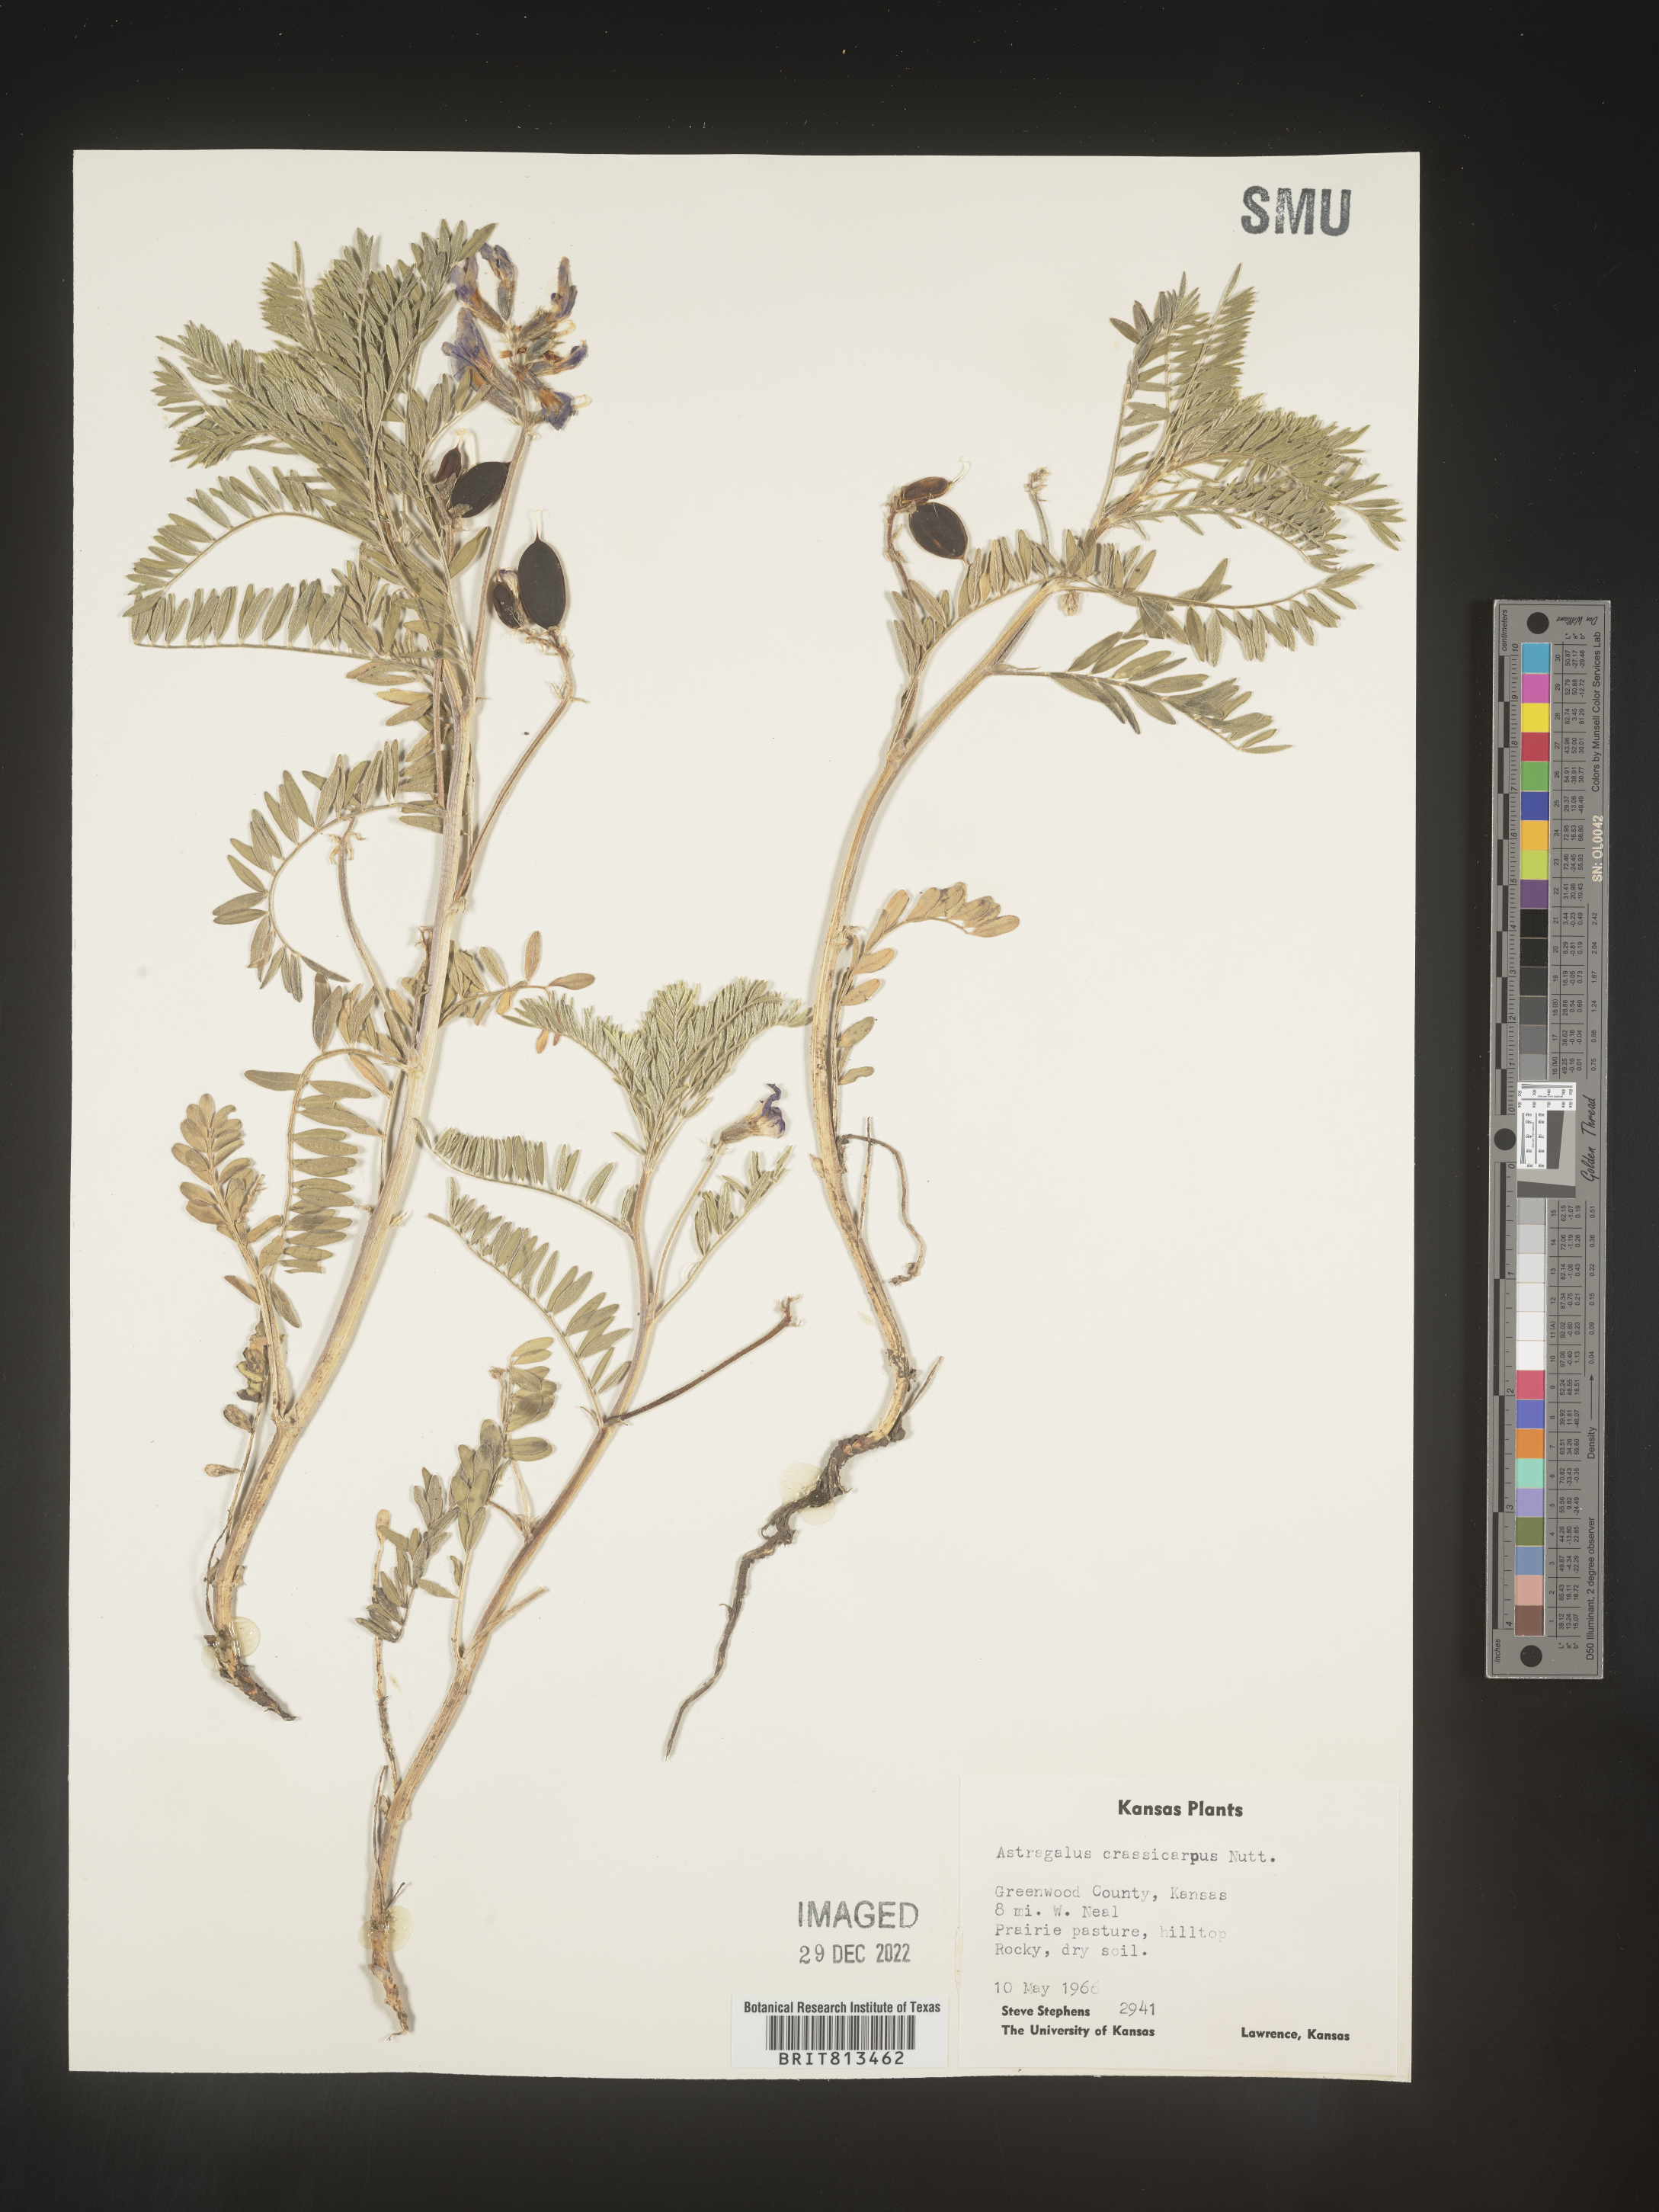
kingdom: Plantae
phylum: Tracheophyta
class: Magnoliopsida
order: Fabales
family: Fabaceae
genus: Astragalus
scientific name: Astragalus
